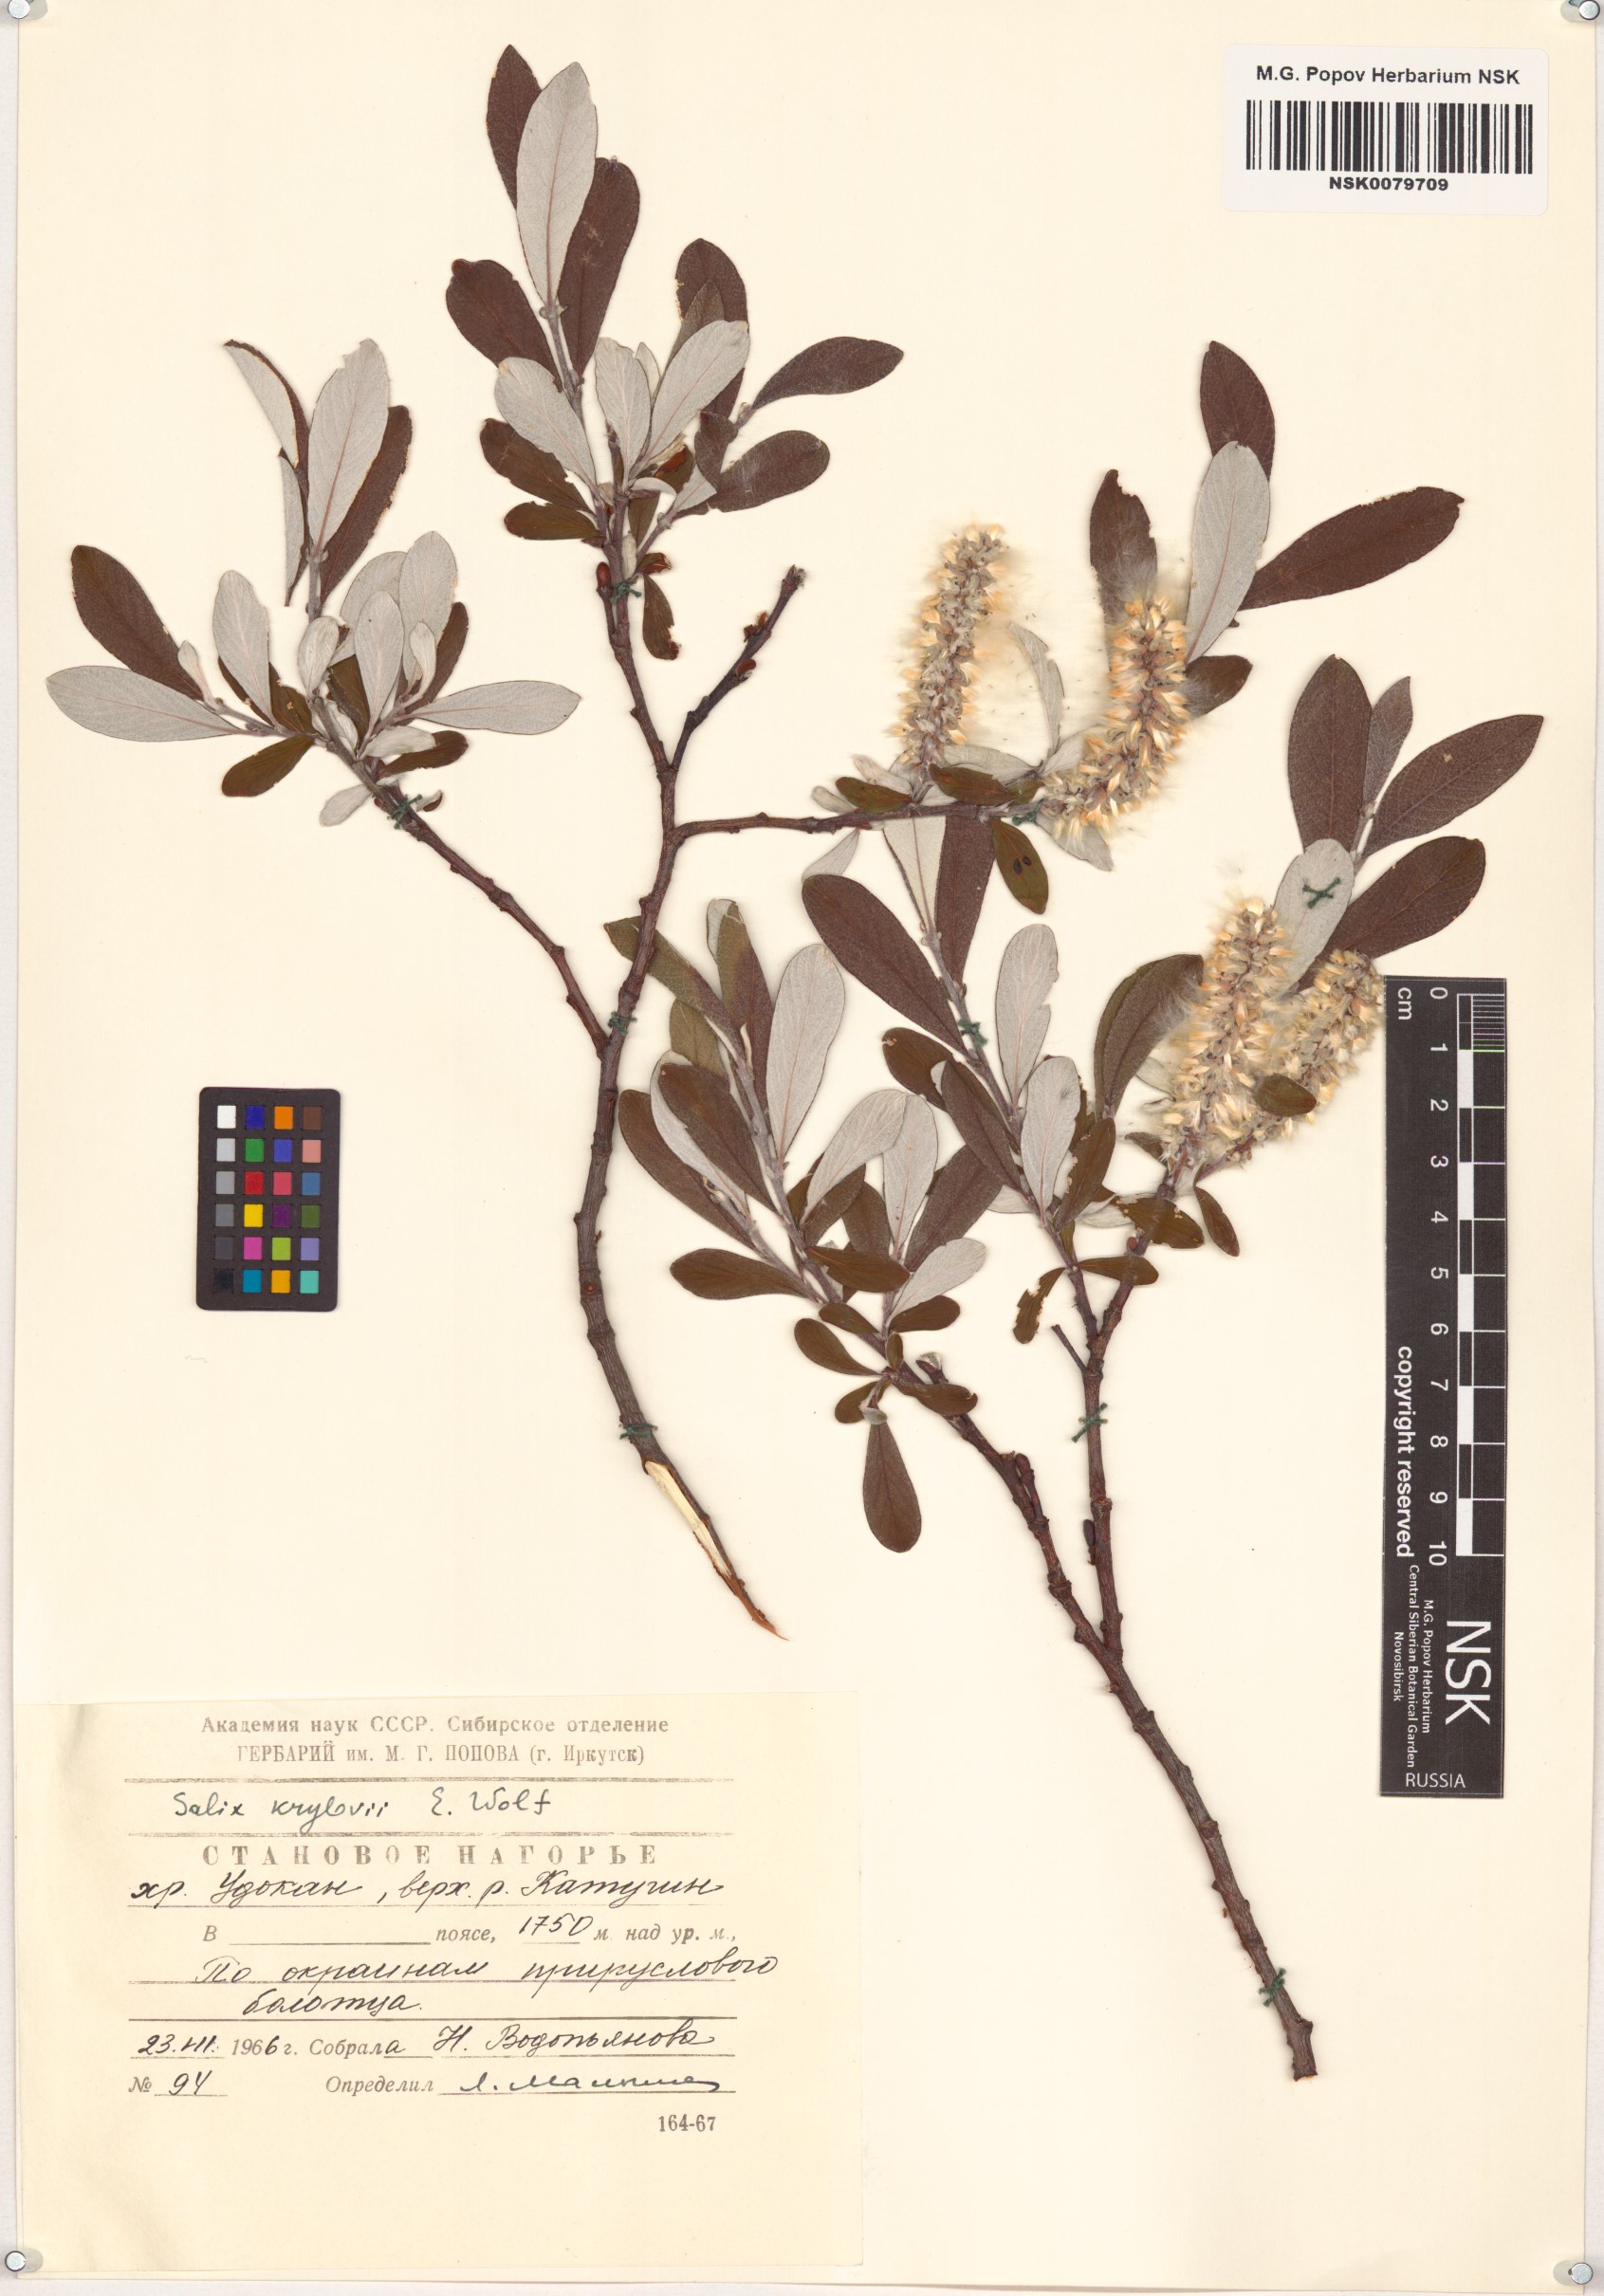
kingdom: Plantae
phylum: Tracheophyta
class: Magnoliopsida
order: Malpighiales
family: Salicaceae
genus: Salix
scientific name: Salix krylovii
